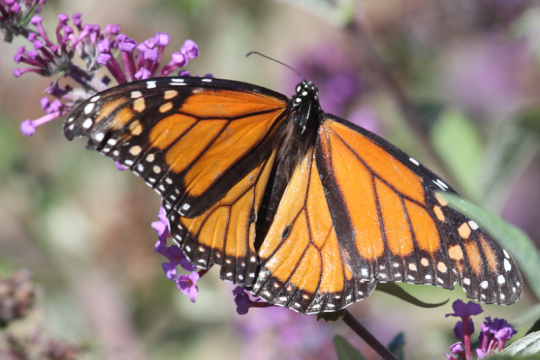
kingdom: Animalia
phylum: Arthropoda
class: Insecta
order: Lepidoptera
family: Nymphalidae
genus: Danaus
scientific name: Danaus plexippus
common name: Monarch
